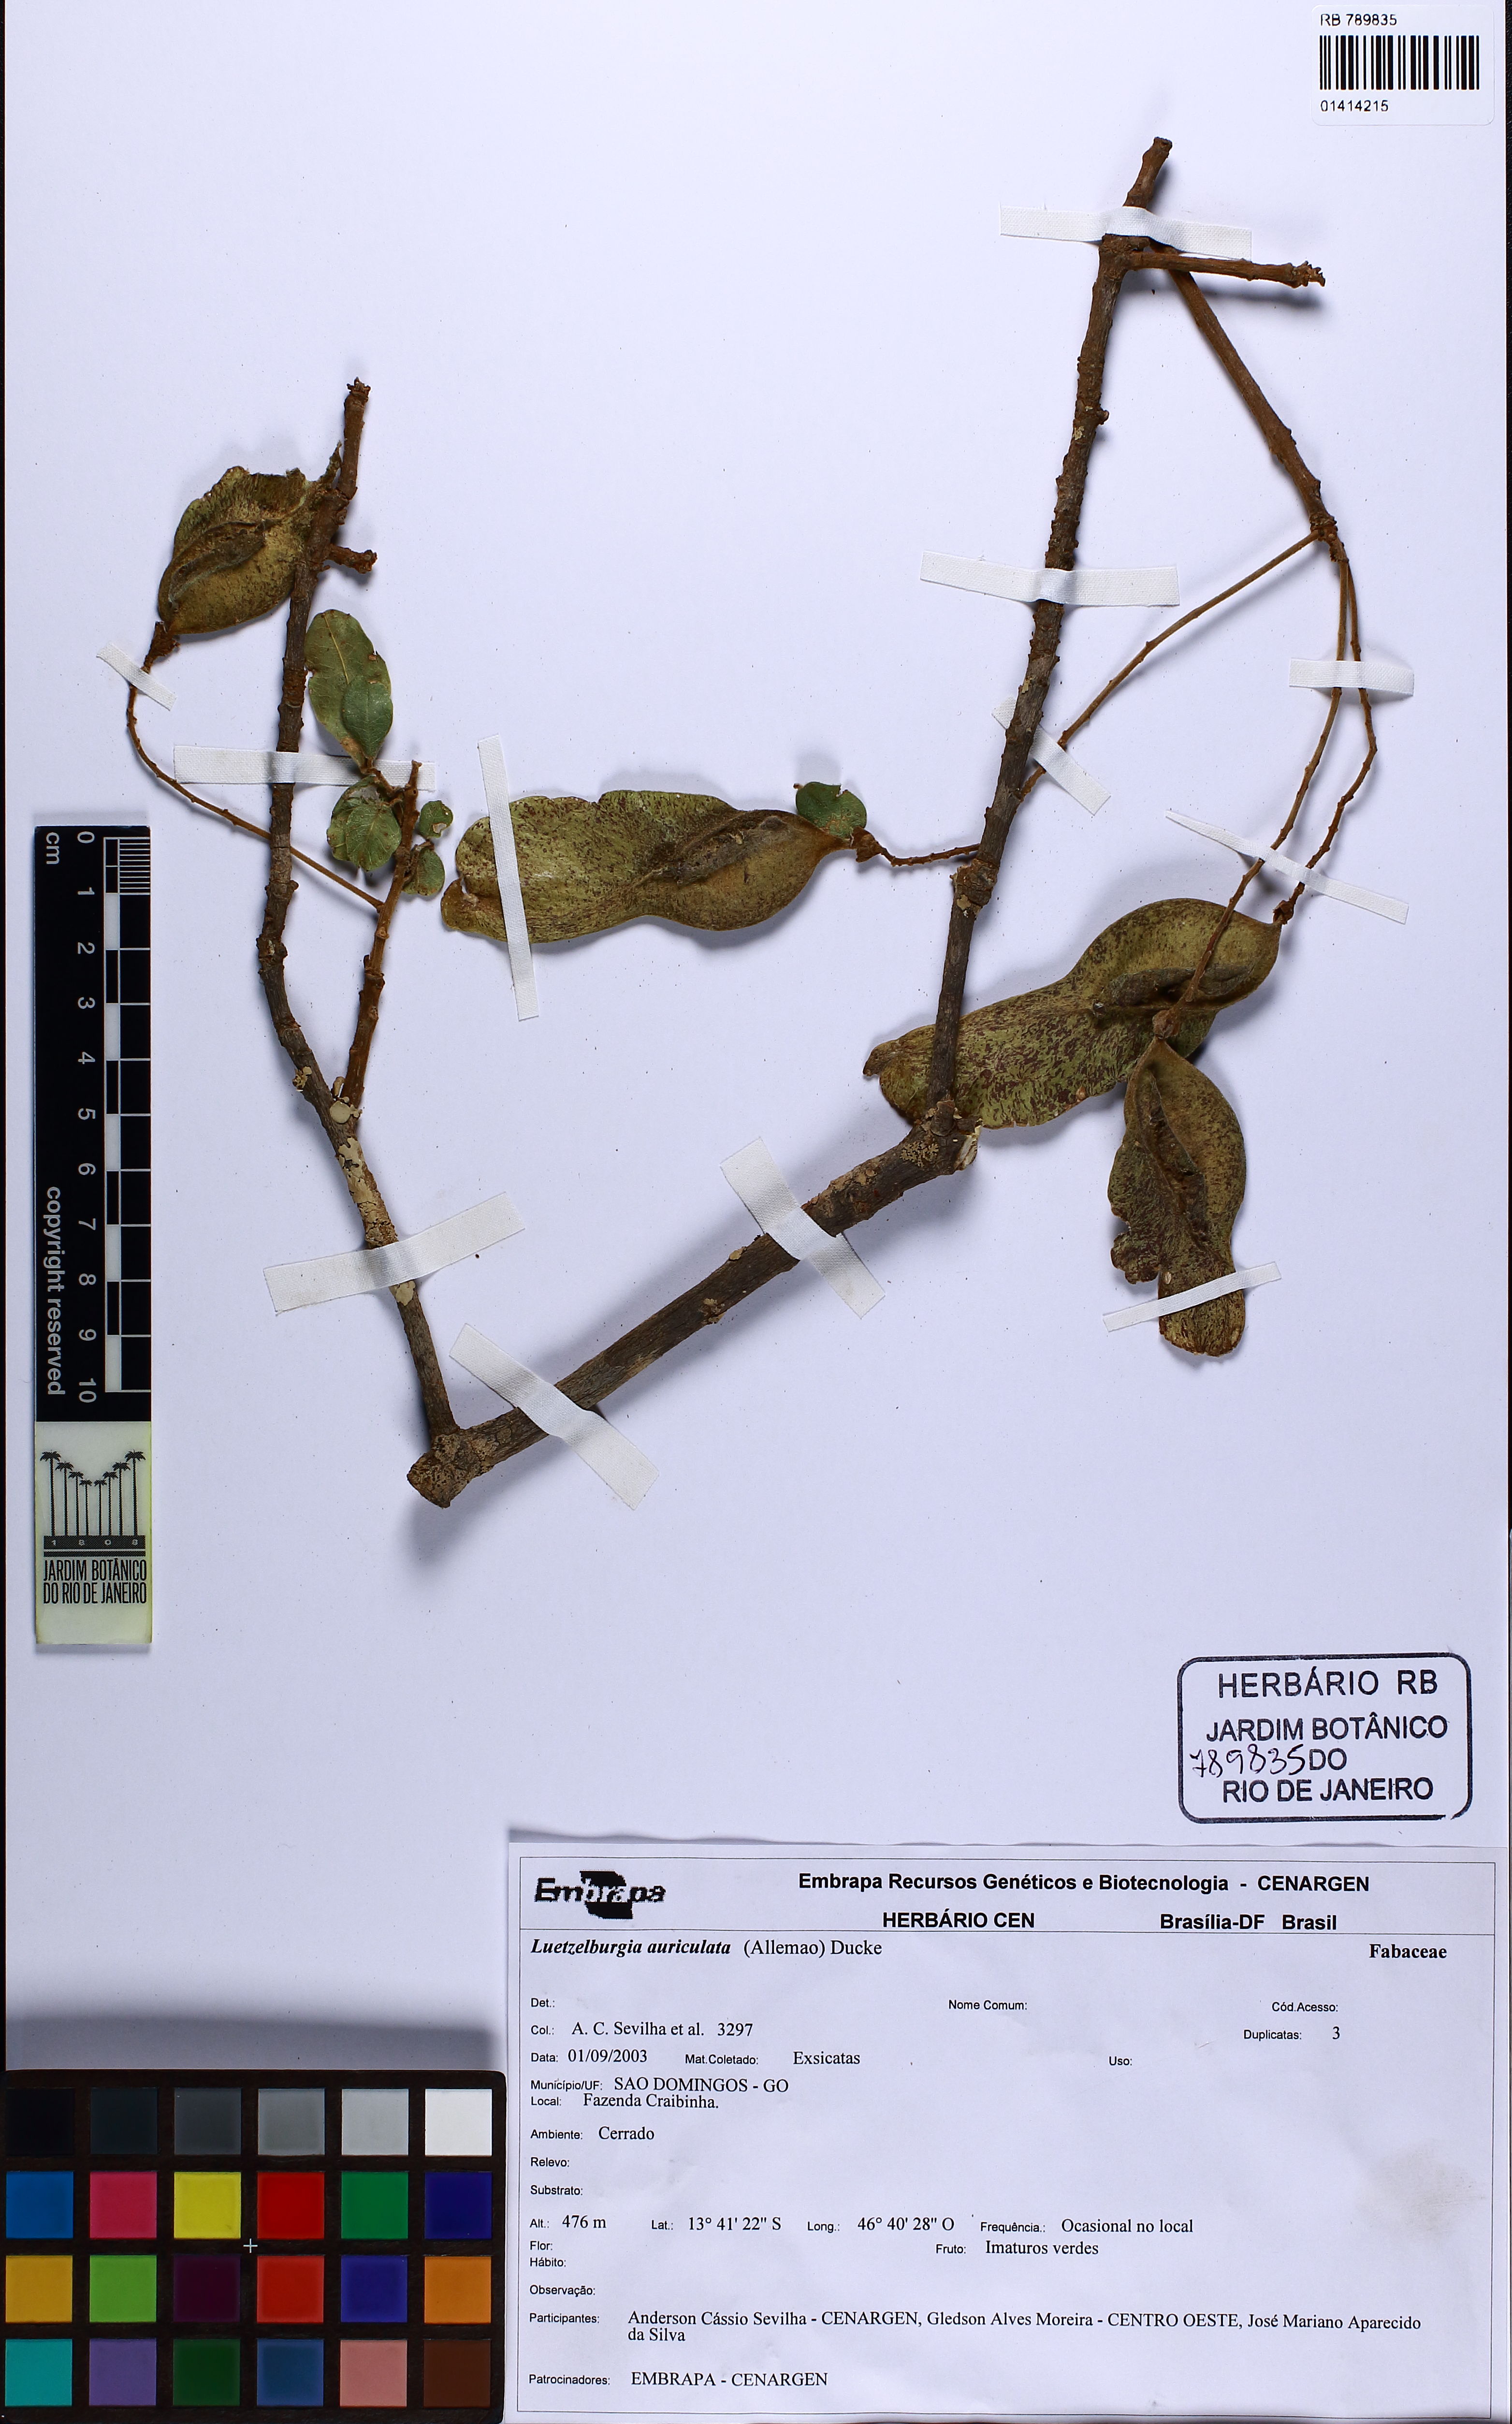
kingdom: Plantae
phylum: Tracheophyta
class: Magnoliopsida
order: Fabales
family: Fabaceae
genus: Luetzelburgia
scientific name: Luetzelburgia auriculata
